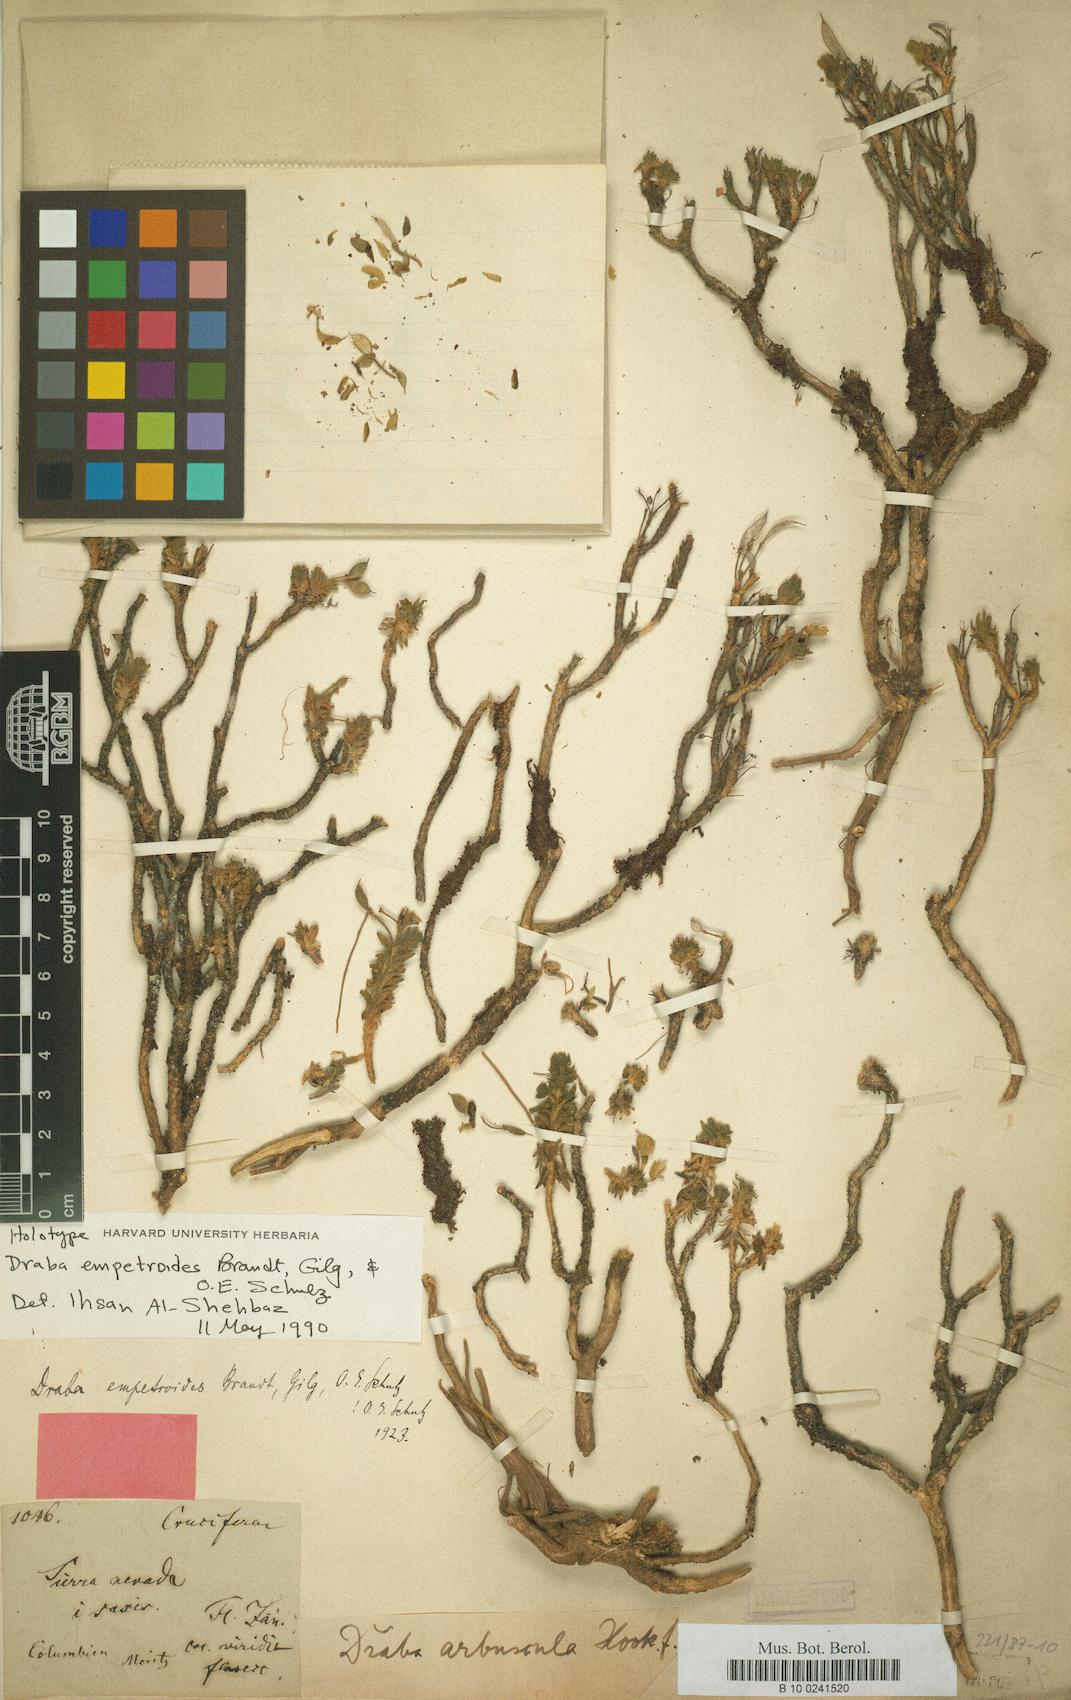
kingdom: Plantae
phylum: Tracheophyta
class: Magnoliopsida
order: Brassicales
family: Brassicaceae
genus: Draba
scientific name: Draba pulvinata
